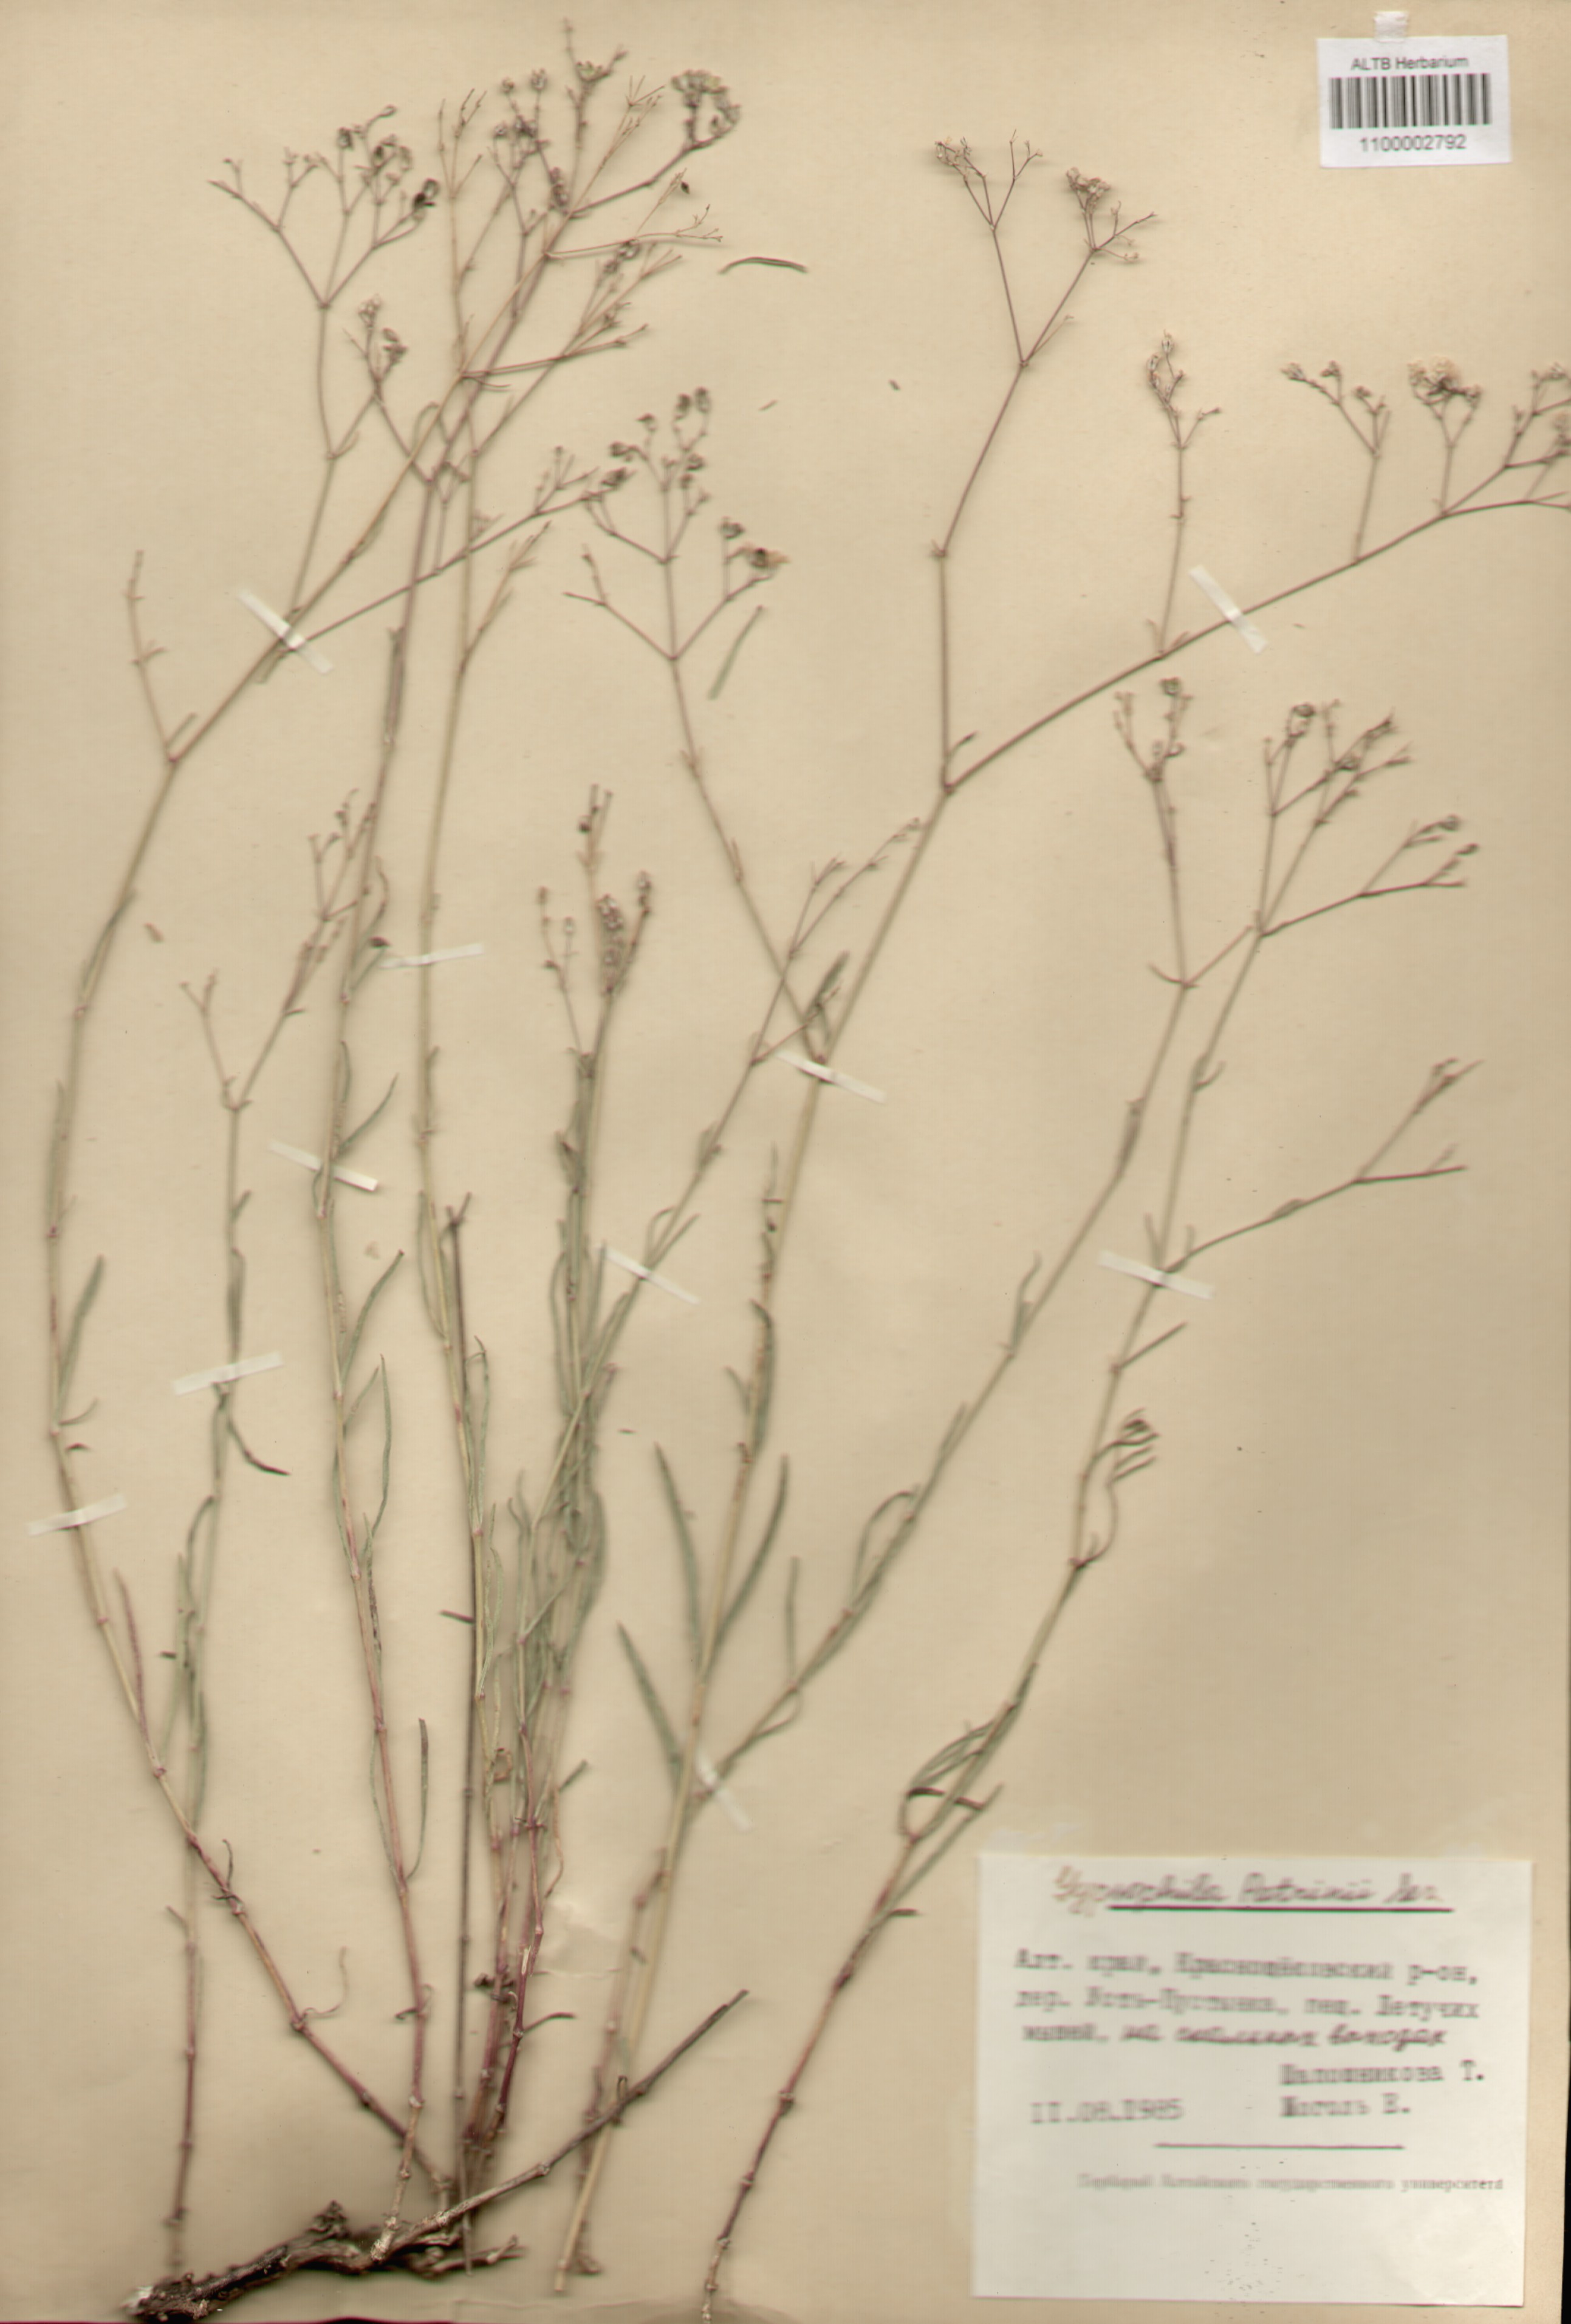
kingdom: Plantae
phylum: Tracheophyta
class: Magnoliopsida
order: Caryophyllales
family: Caryophyllaceae
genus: Gypsophila
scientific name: Gypsophila patrinii
